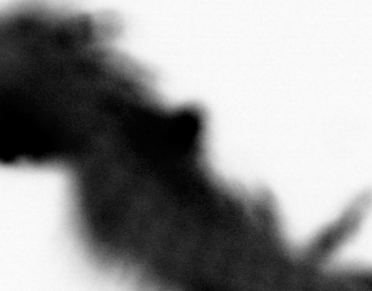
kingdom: Animalia
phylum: Annelida
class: Polychaeta
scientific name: Polychaeta
